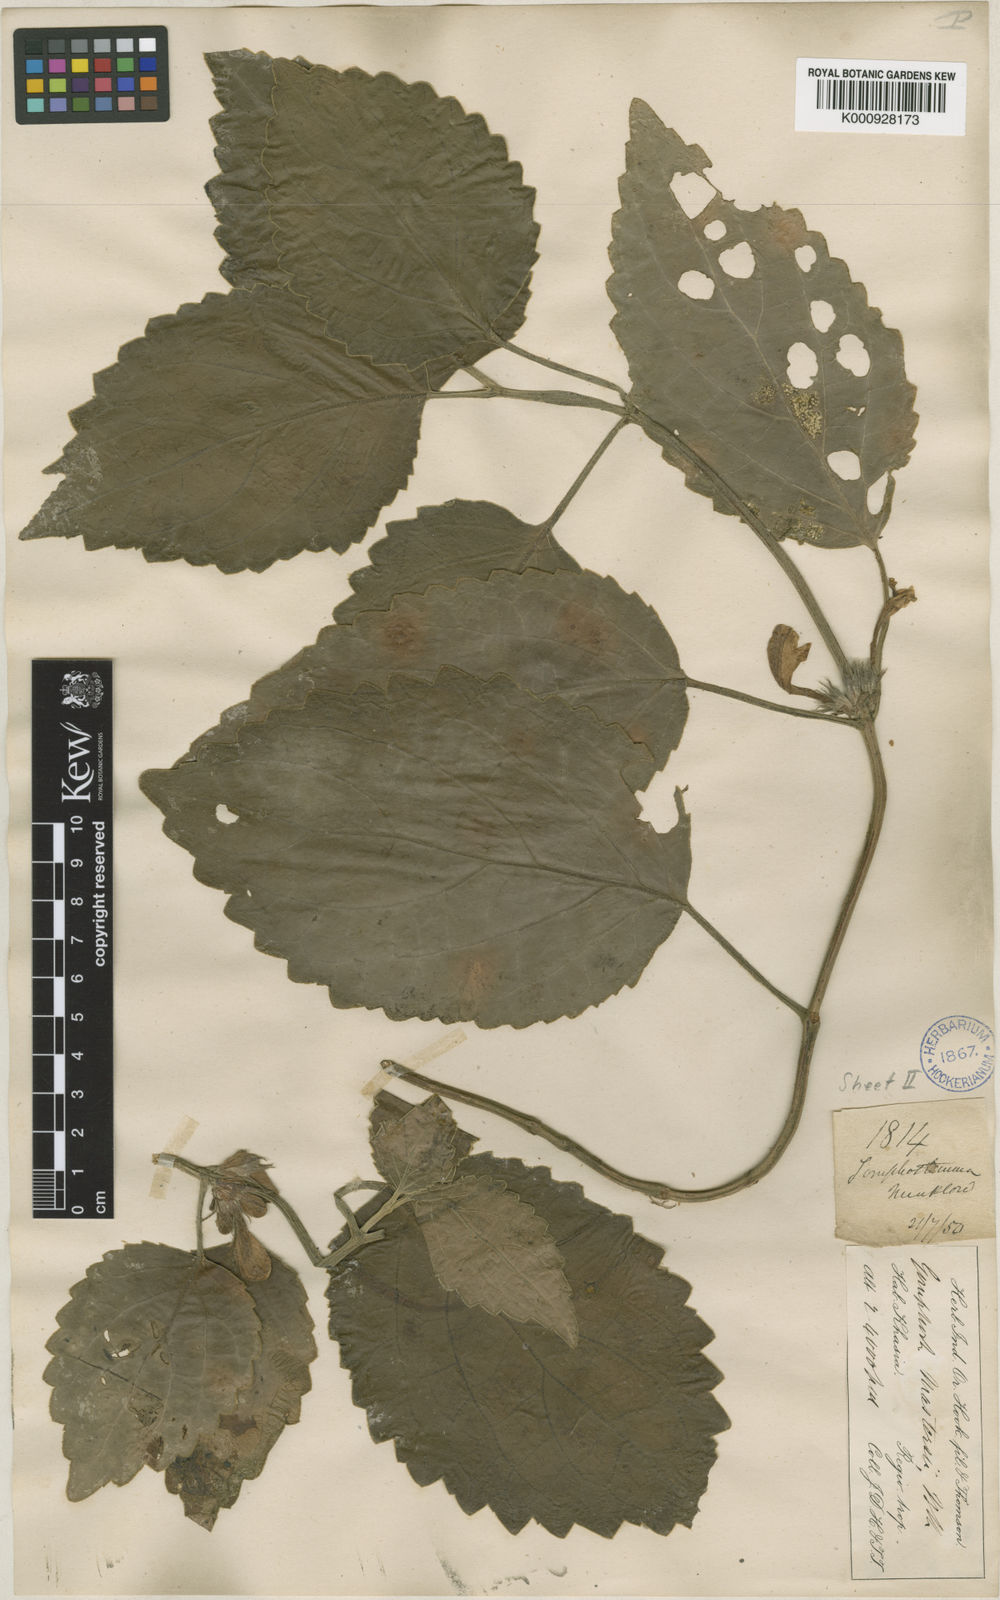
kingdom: Plantae
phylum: Tracheophyta
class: Magnoliopsida
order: Lamiales
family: Lamiaceae
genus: Gomphostemma
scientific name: Gomphostemma mastersii
